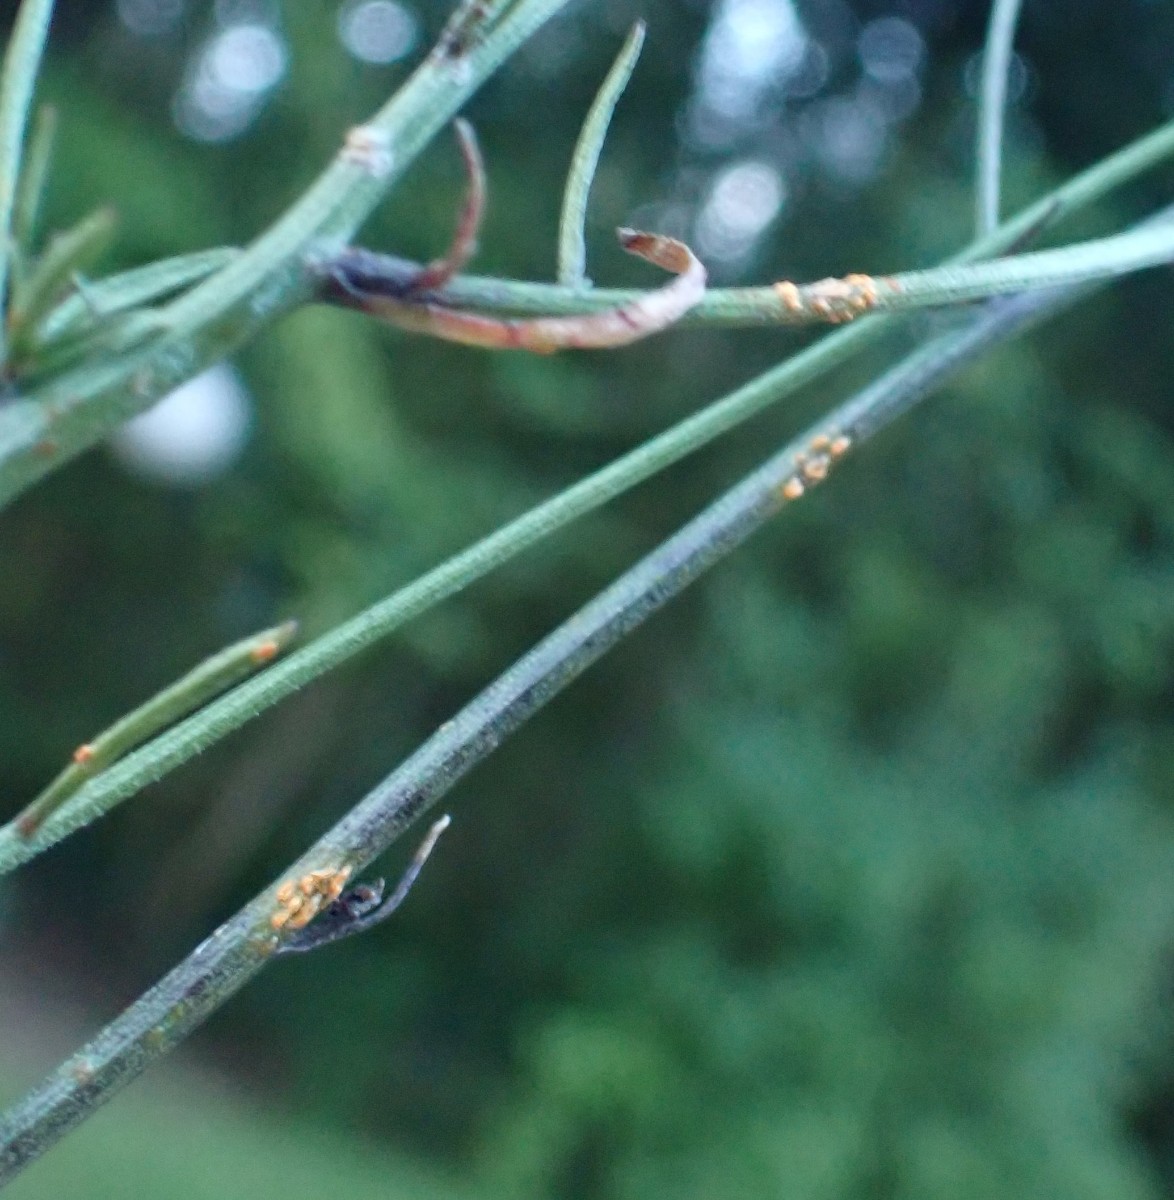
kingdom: Fungi
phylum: Basidiomycota
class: Pucciniomycetes
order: Pucciniales
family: Coleosporiaceae
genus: Coleosporium
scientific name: Coleosporium tussilaginis
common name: almindelig fyrrenålerust
